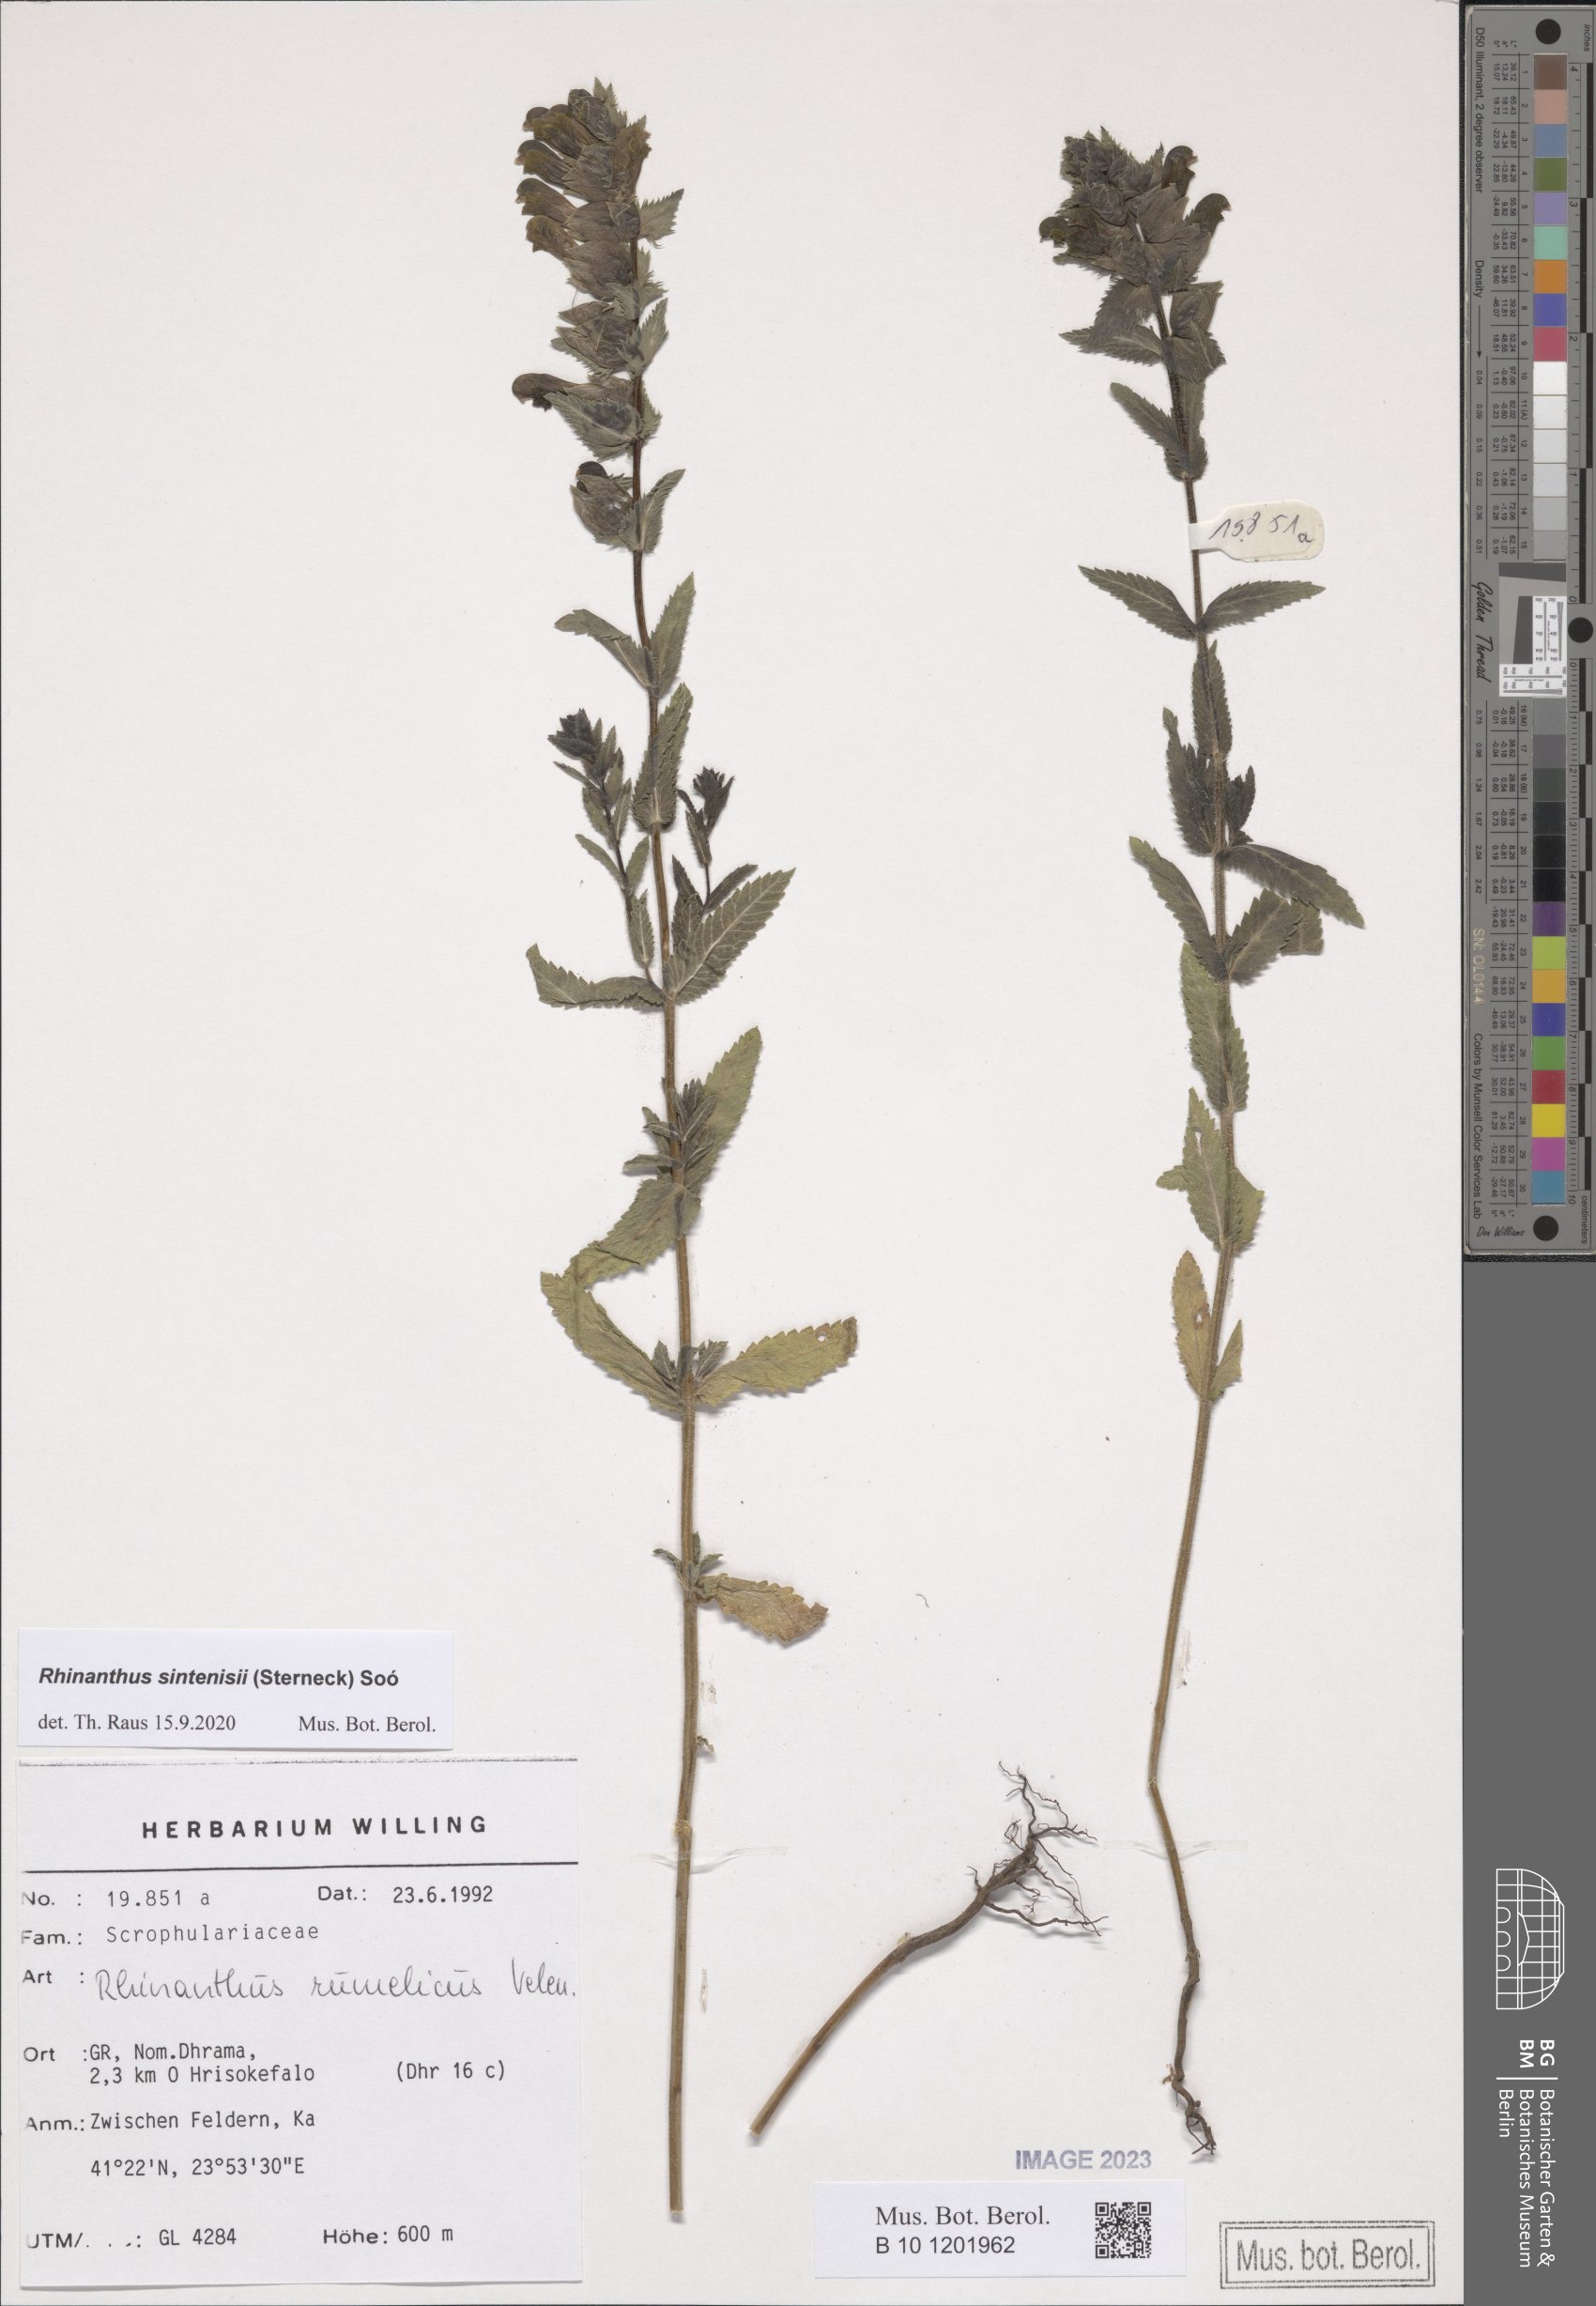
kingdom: Plantae
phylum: Tracheophyta
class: Magnoliopsida
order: Lamiales
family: Orobanchaceae
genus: Rhinanthus
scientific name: Rhinanthus sintenisii
